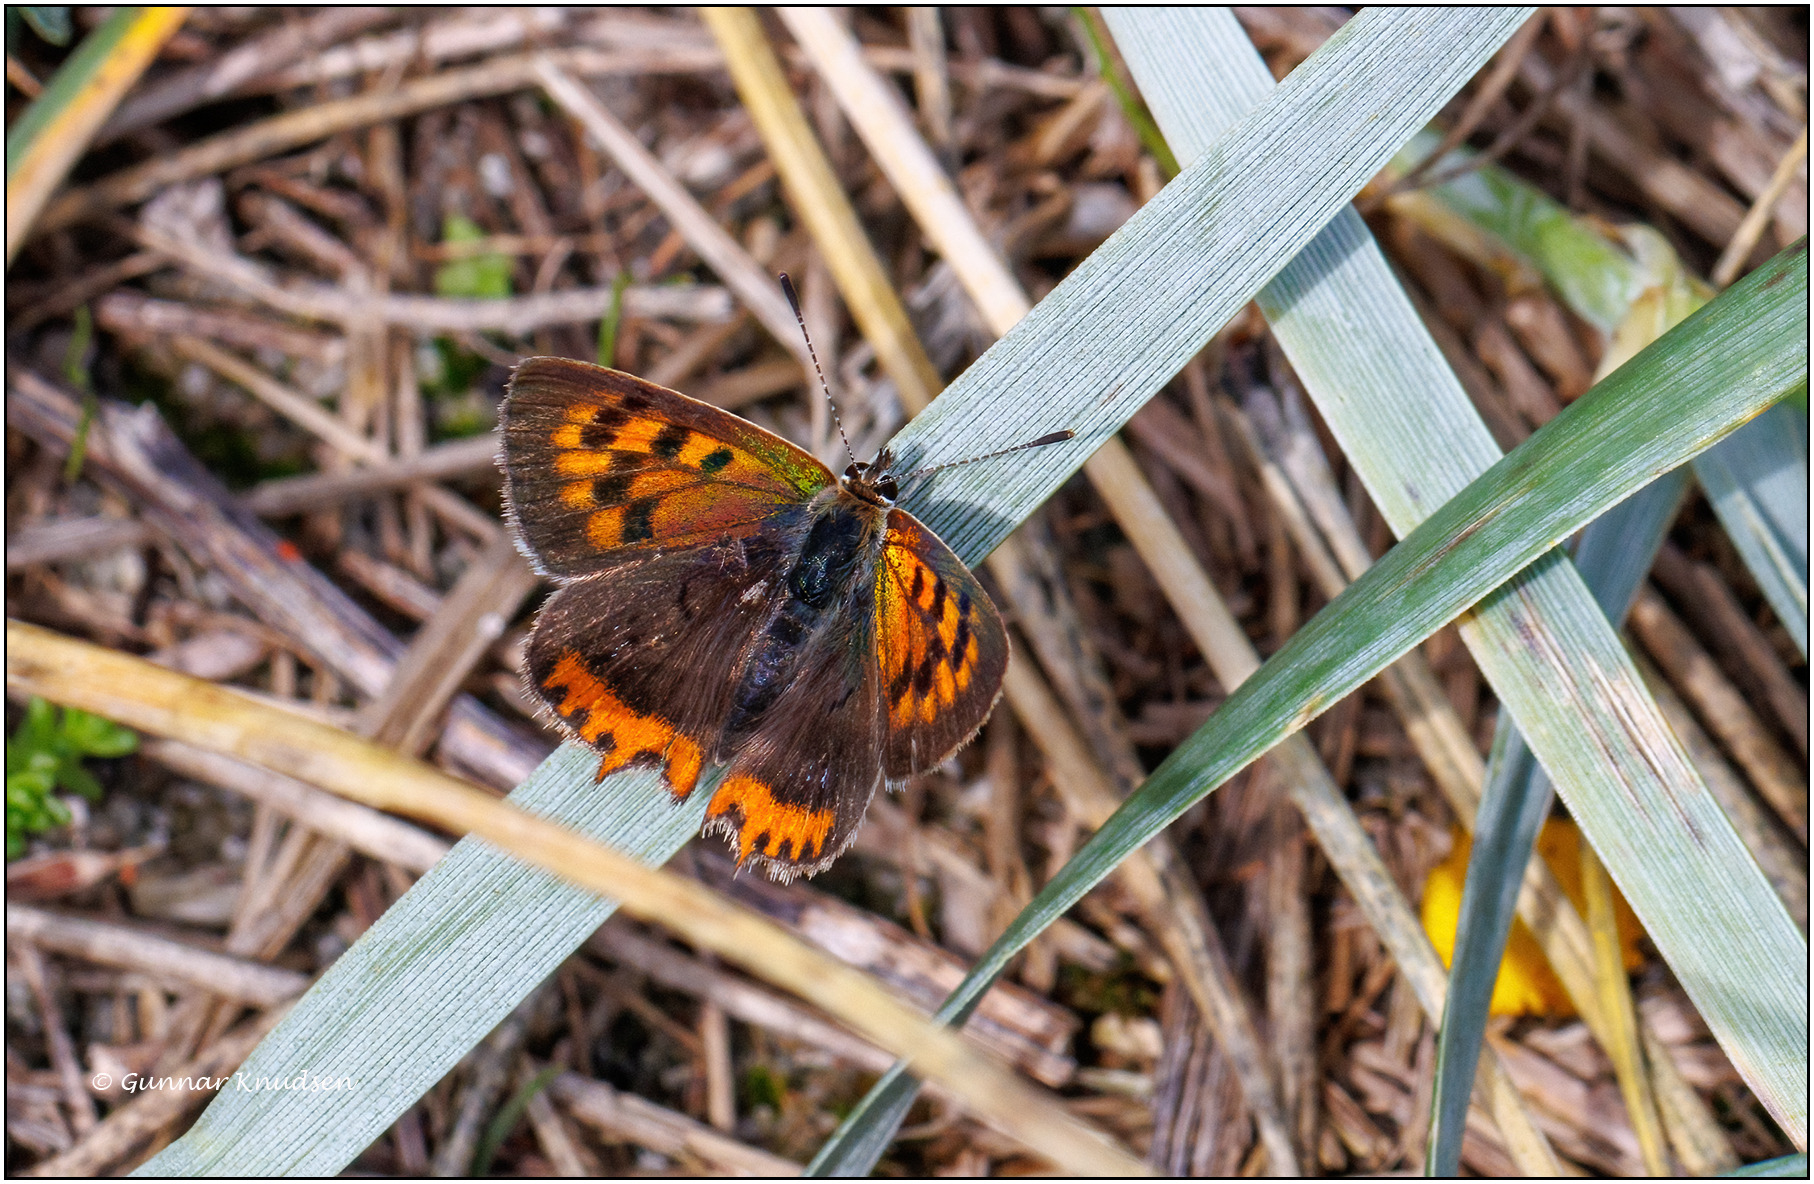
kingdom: Animalia
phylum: Arthropoda
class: Insecta
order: Lepidoptera
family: Lycaenidae
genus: Lycaena
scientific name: Lycaena phlaeas
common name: Lille ildfugl
